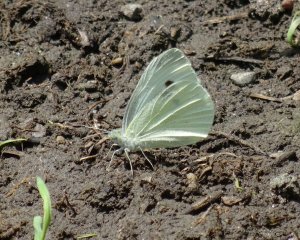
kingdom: Animalia
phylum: Arthropoda
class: Insecta
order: Lepidoptera
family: Pieridae
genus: Pieris
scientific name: Pieris rapae
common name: Cabbage White
